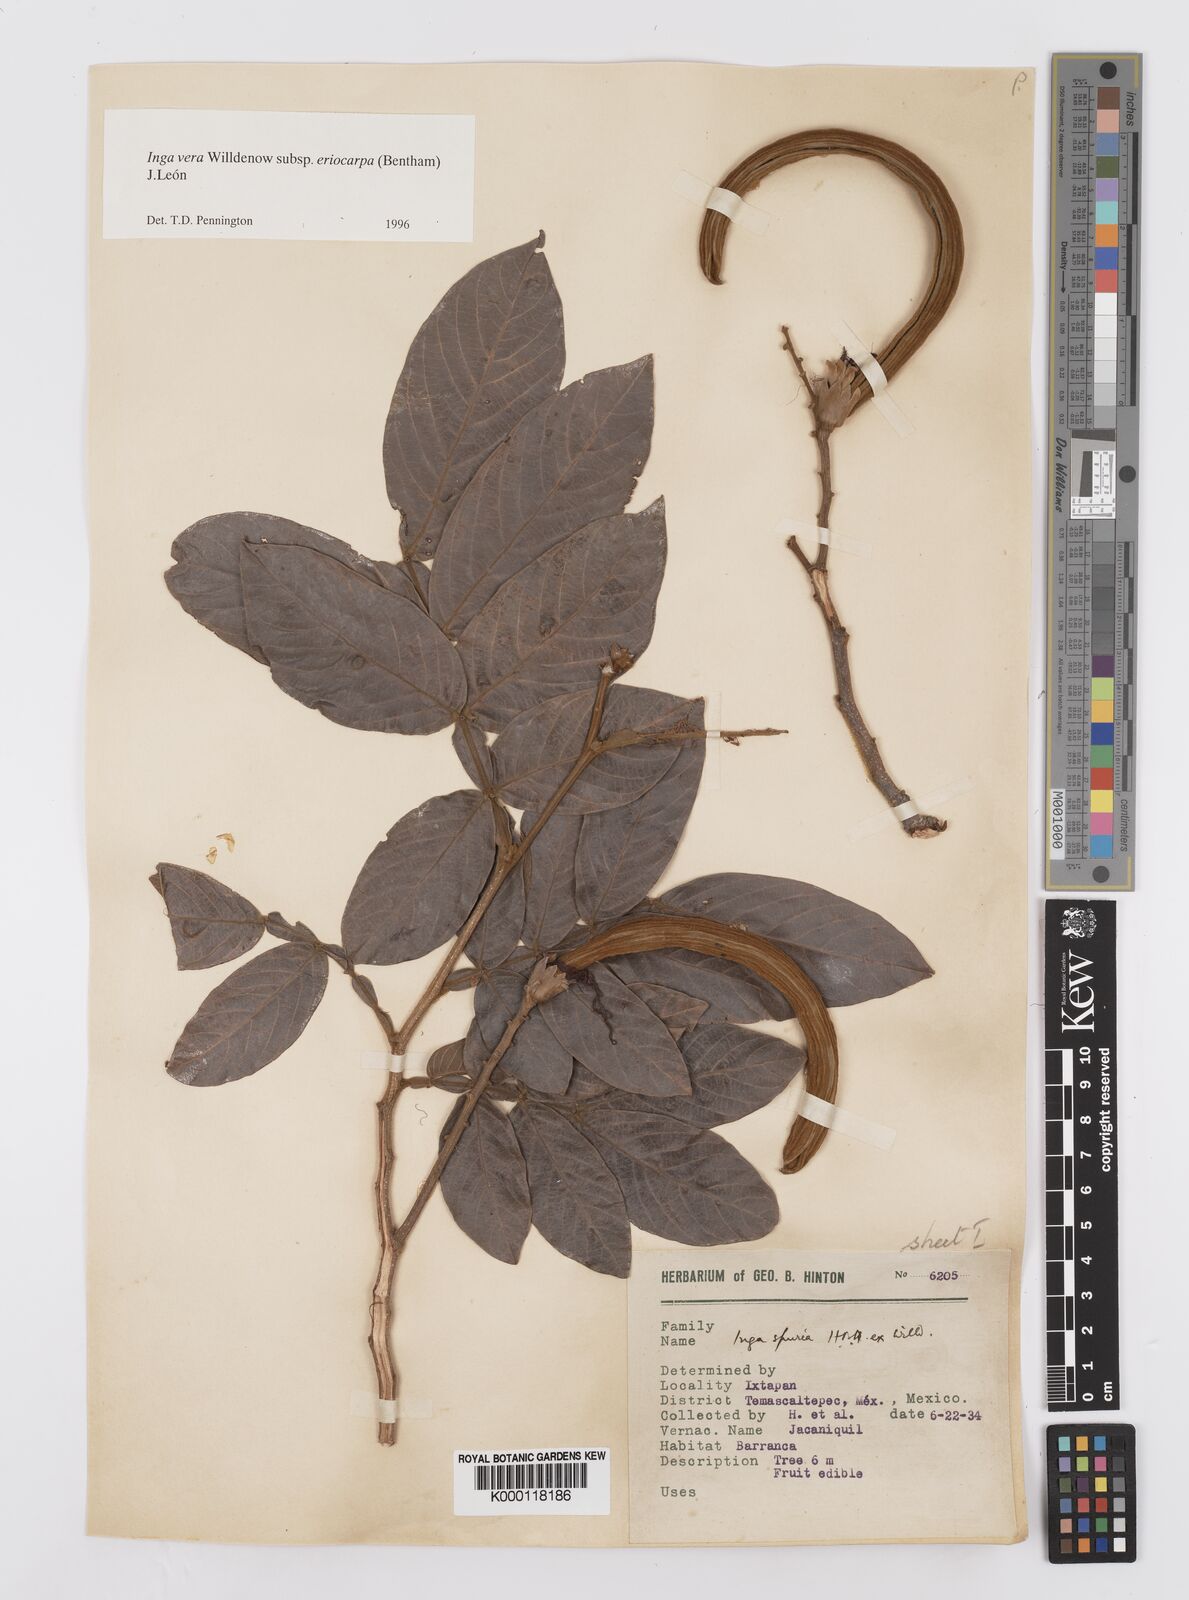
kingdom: Plantae
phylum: Tracheophyta
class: Magnoliopsida
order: Fabales
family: Fabaceae
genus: Inga
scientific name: Inga vera
